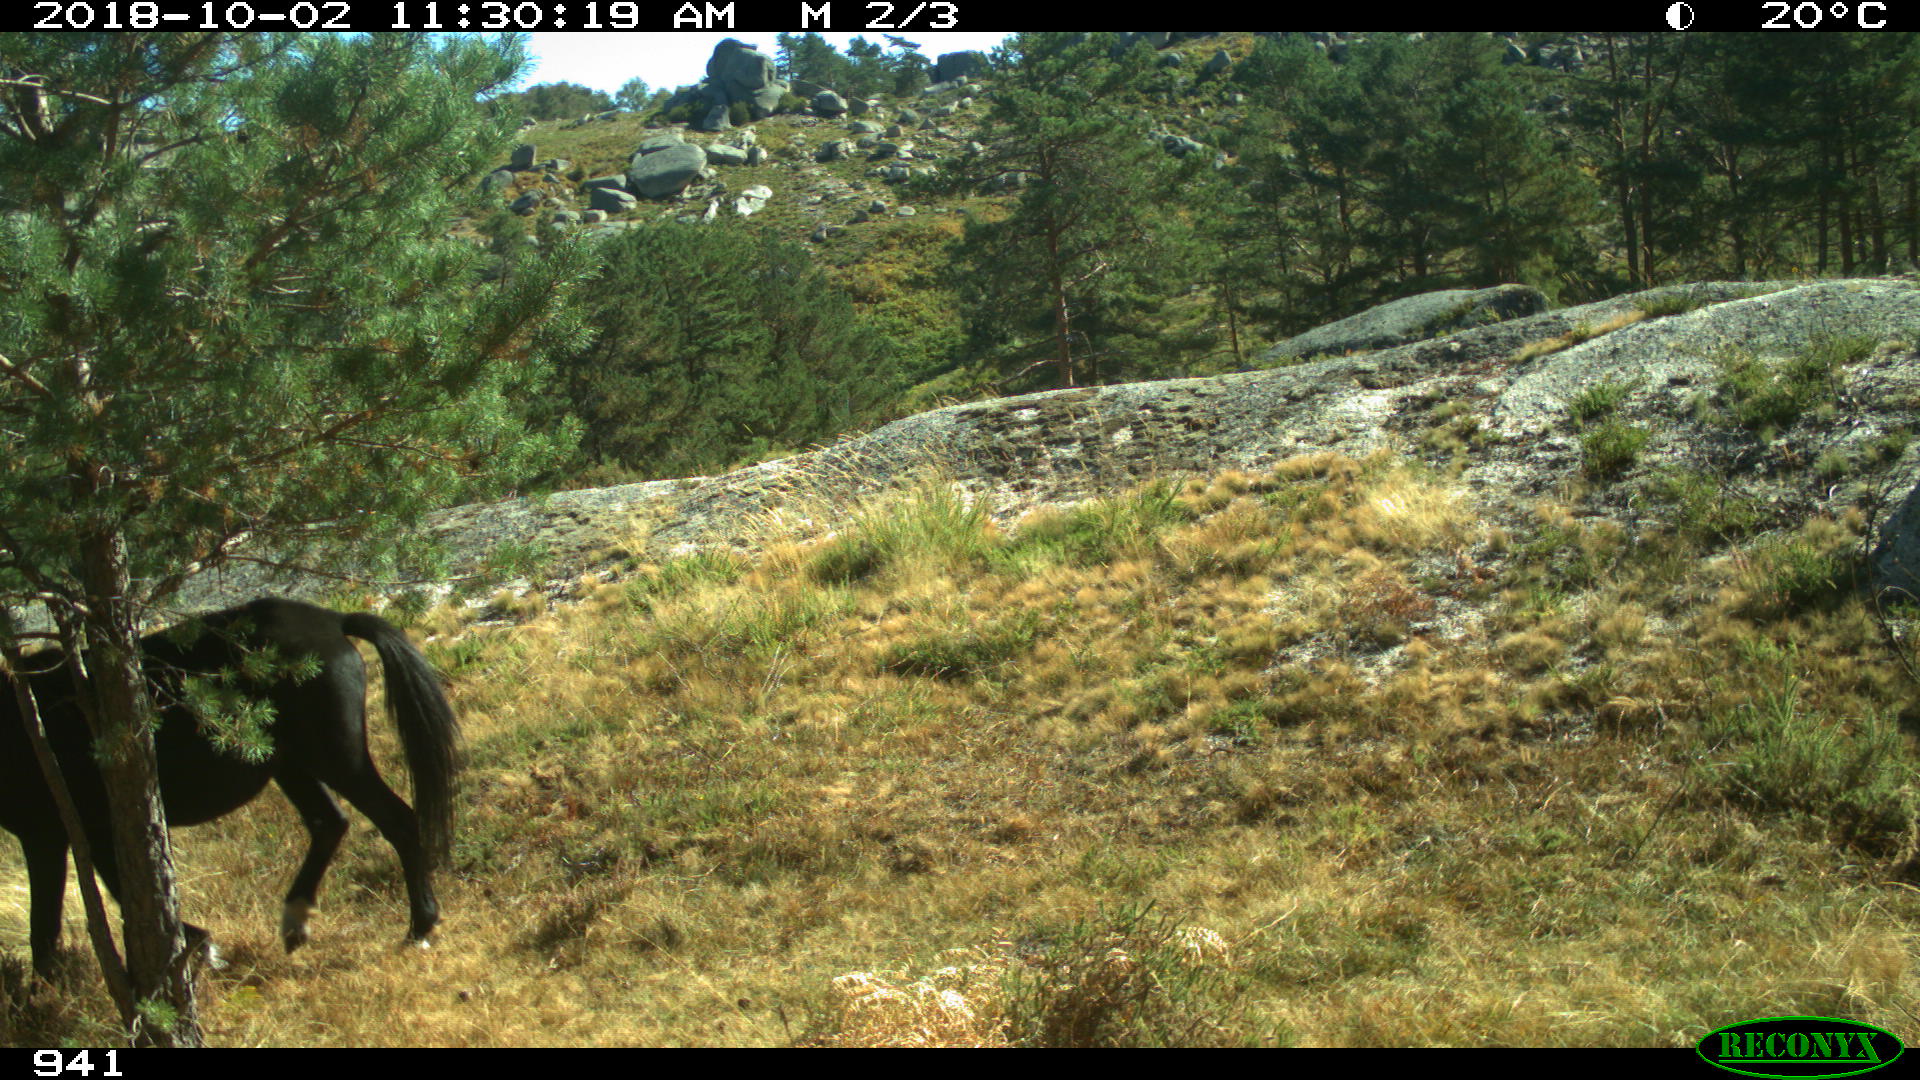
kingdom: Animalia
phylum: Chordata
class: Mammalia
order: Perissodactyla
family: Equidae
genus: Equus
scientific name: Equus caballus
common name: Horse
